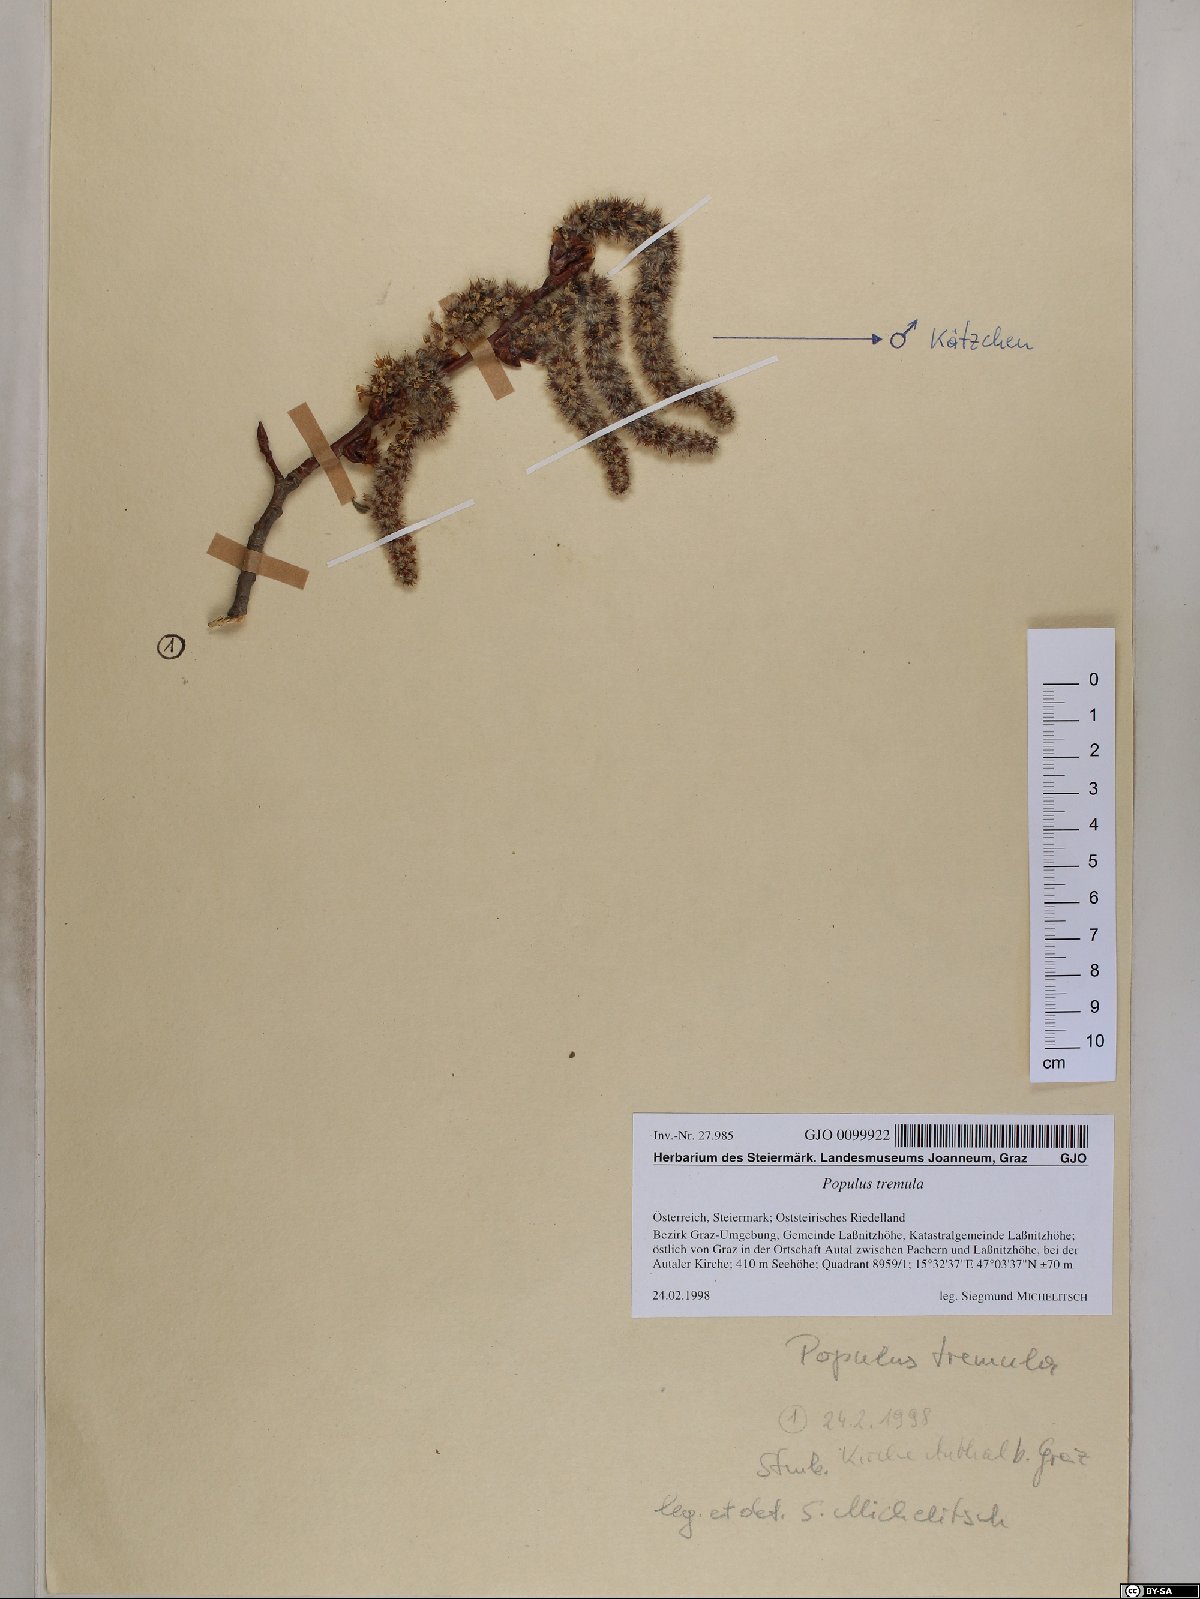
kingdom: Plantae
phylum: Tracheophyta
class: Magnoliopsida
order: Malpighiales
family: Salicaceae
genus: Populus
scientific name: Populus tremula
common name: European aspen
